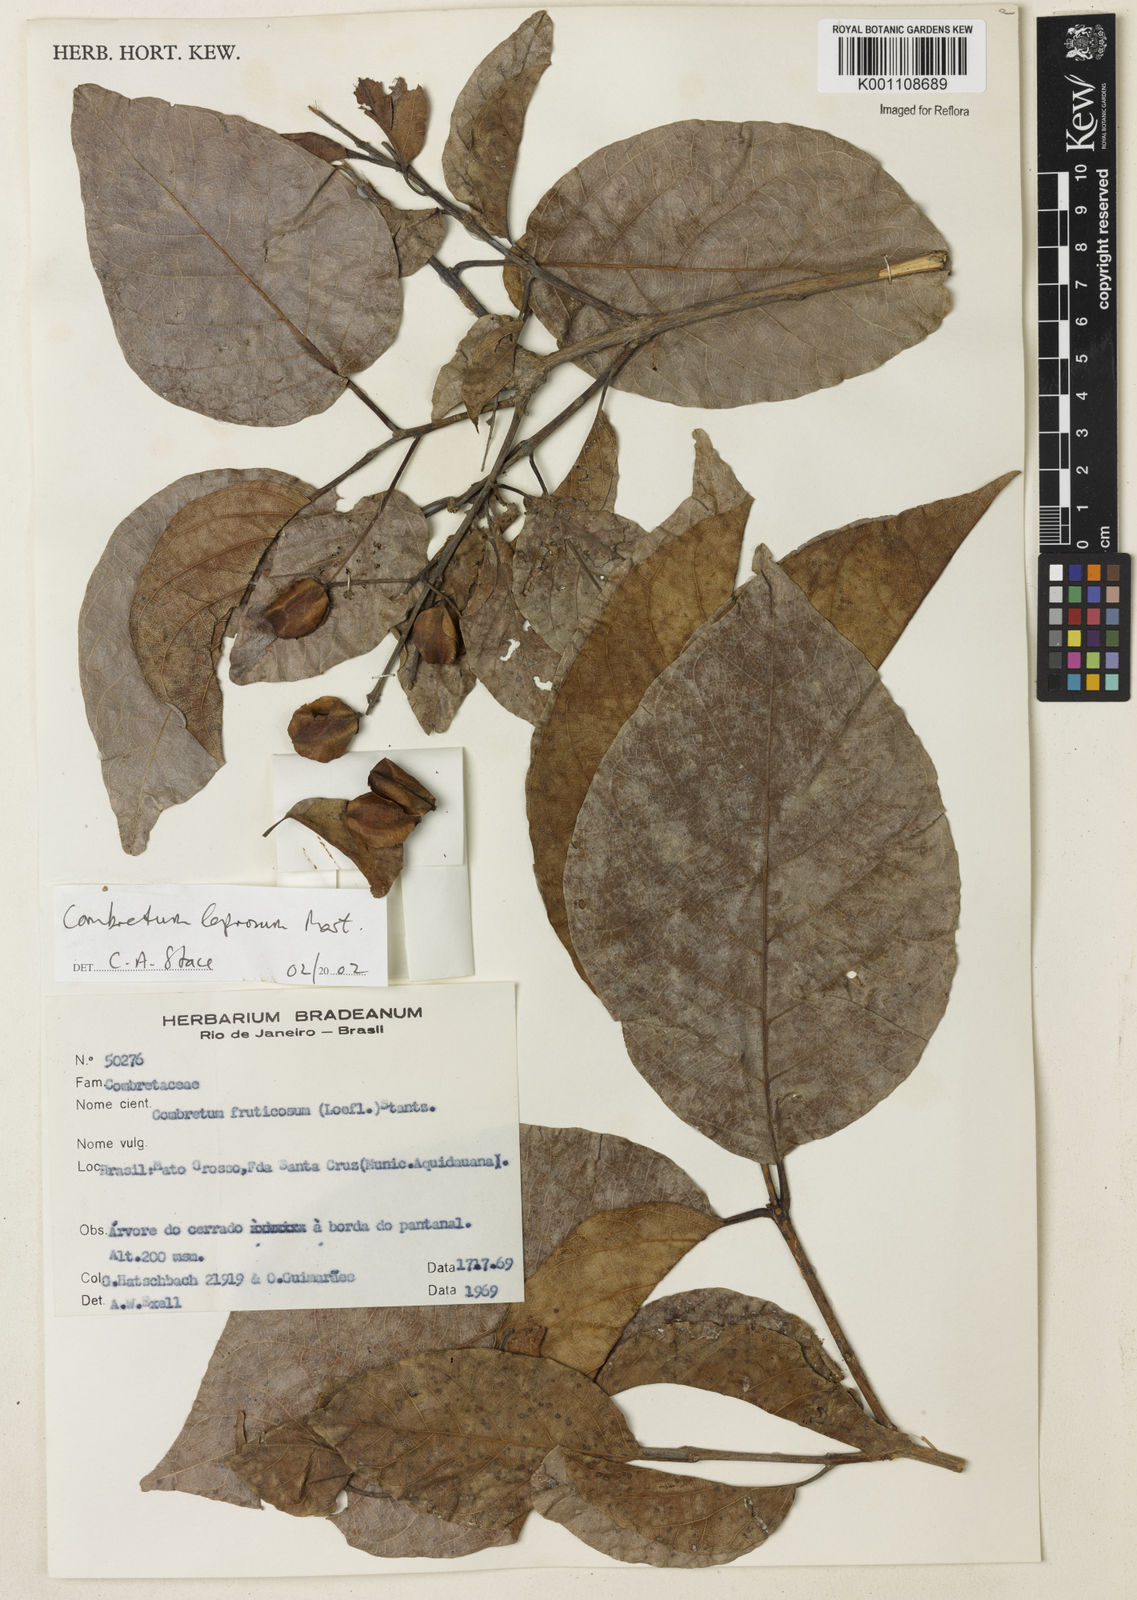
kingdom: Plantae
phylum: Tracheophyta
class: Magnoliopsida
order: Myrtales
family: Combretaceae
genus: Combretum
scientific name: Combretum leprosum
